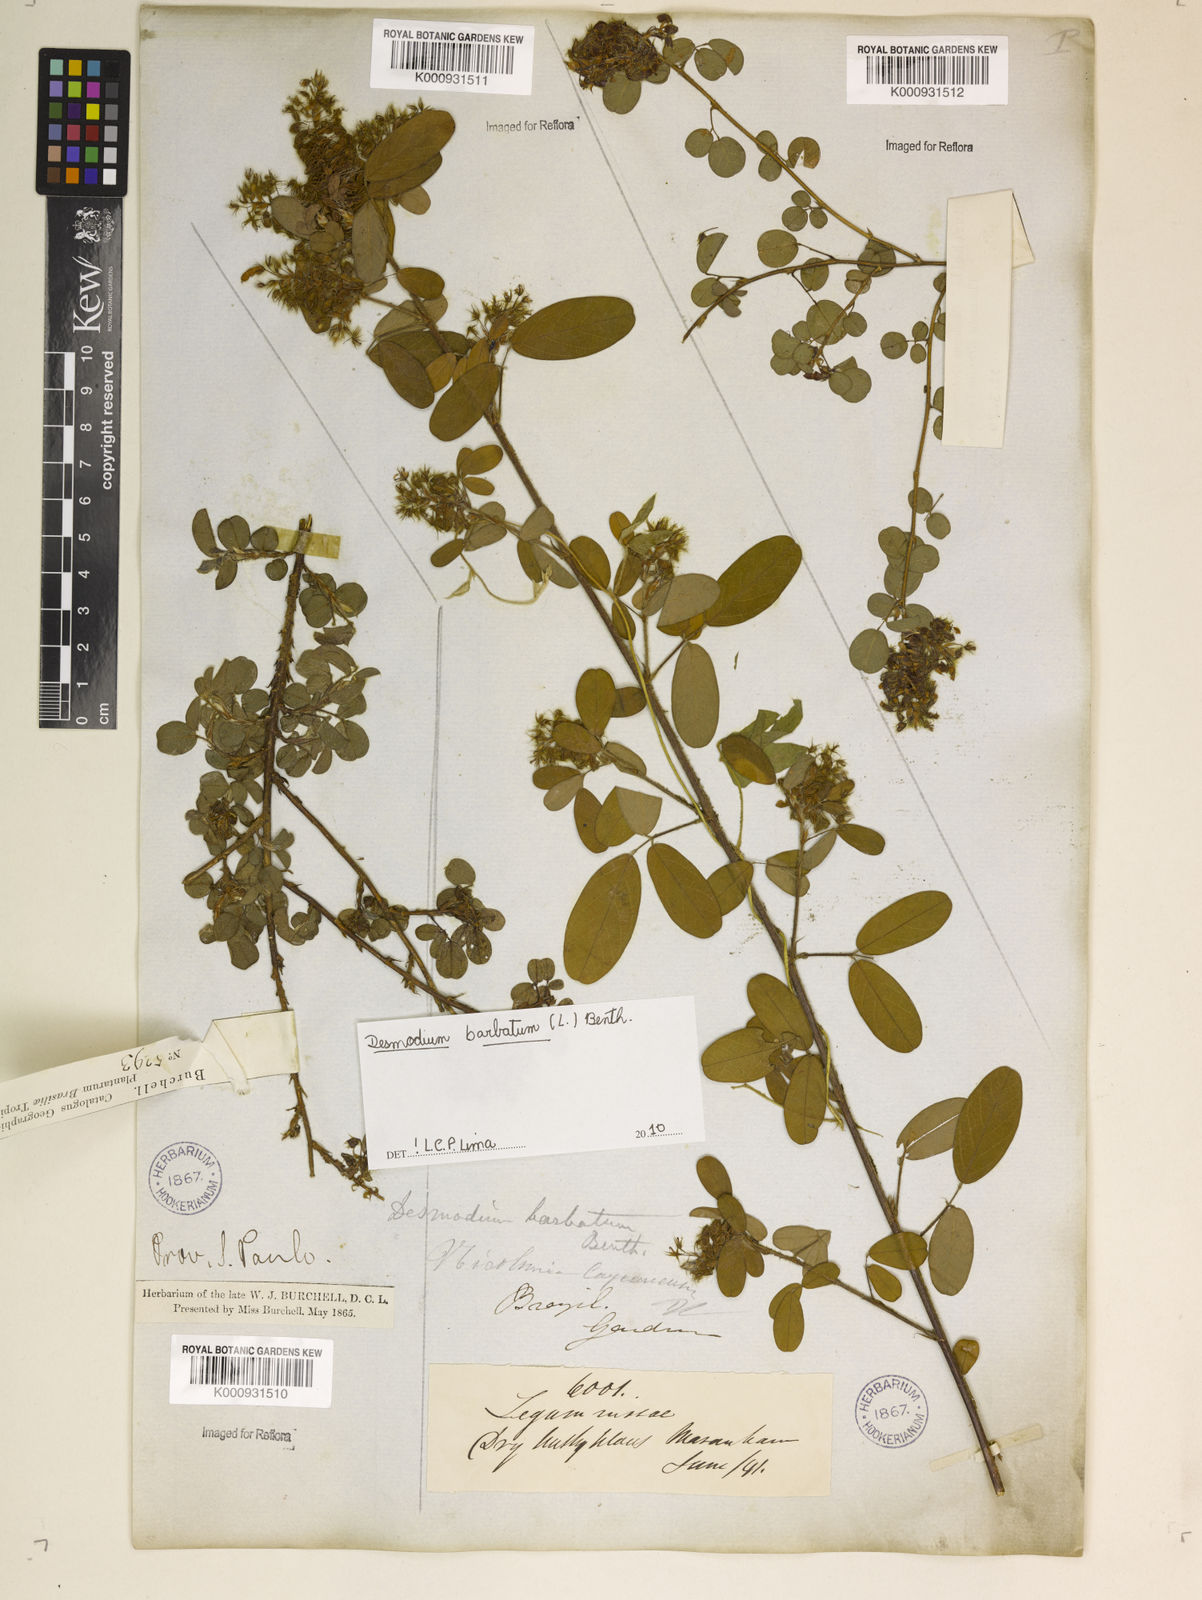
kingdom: Plantae
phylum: Tracheophyta
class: Magnoliopsida
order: Fabales
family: Fabaceae
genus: Grona
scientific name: Grona barbata
